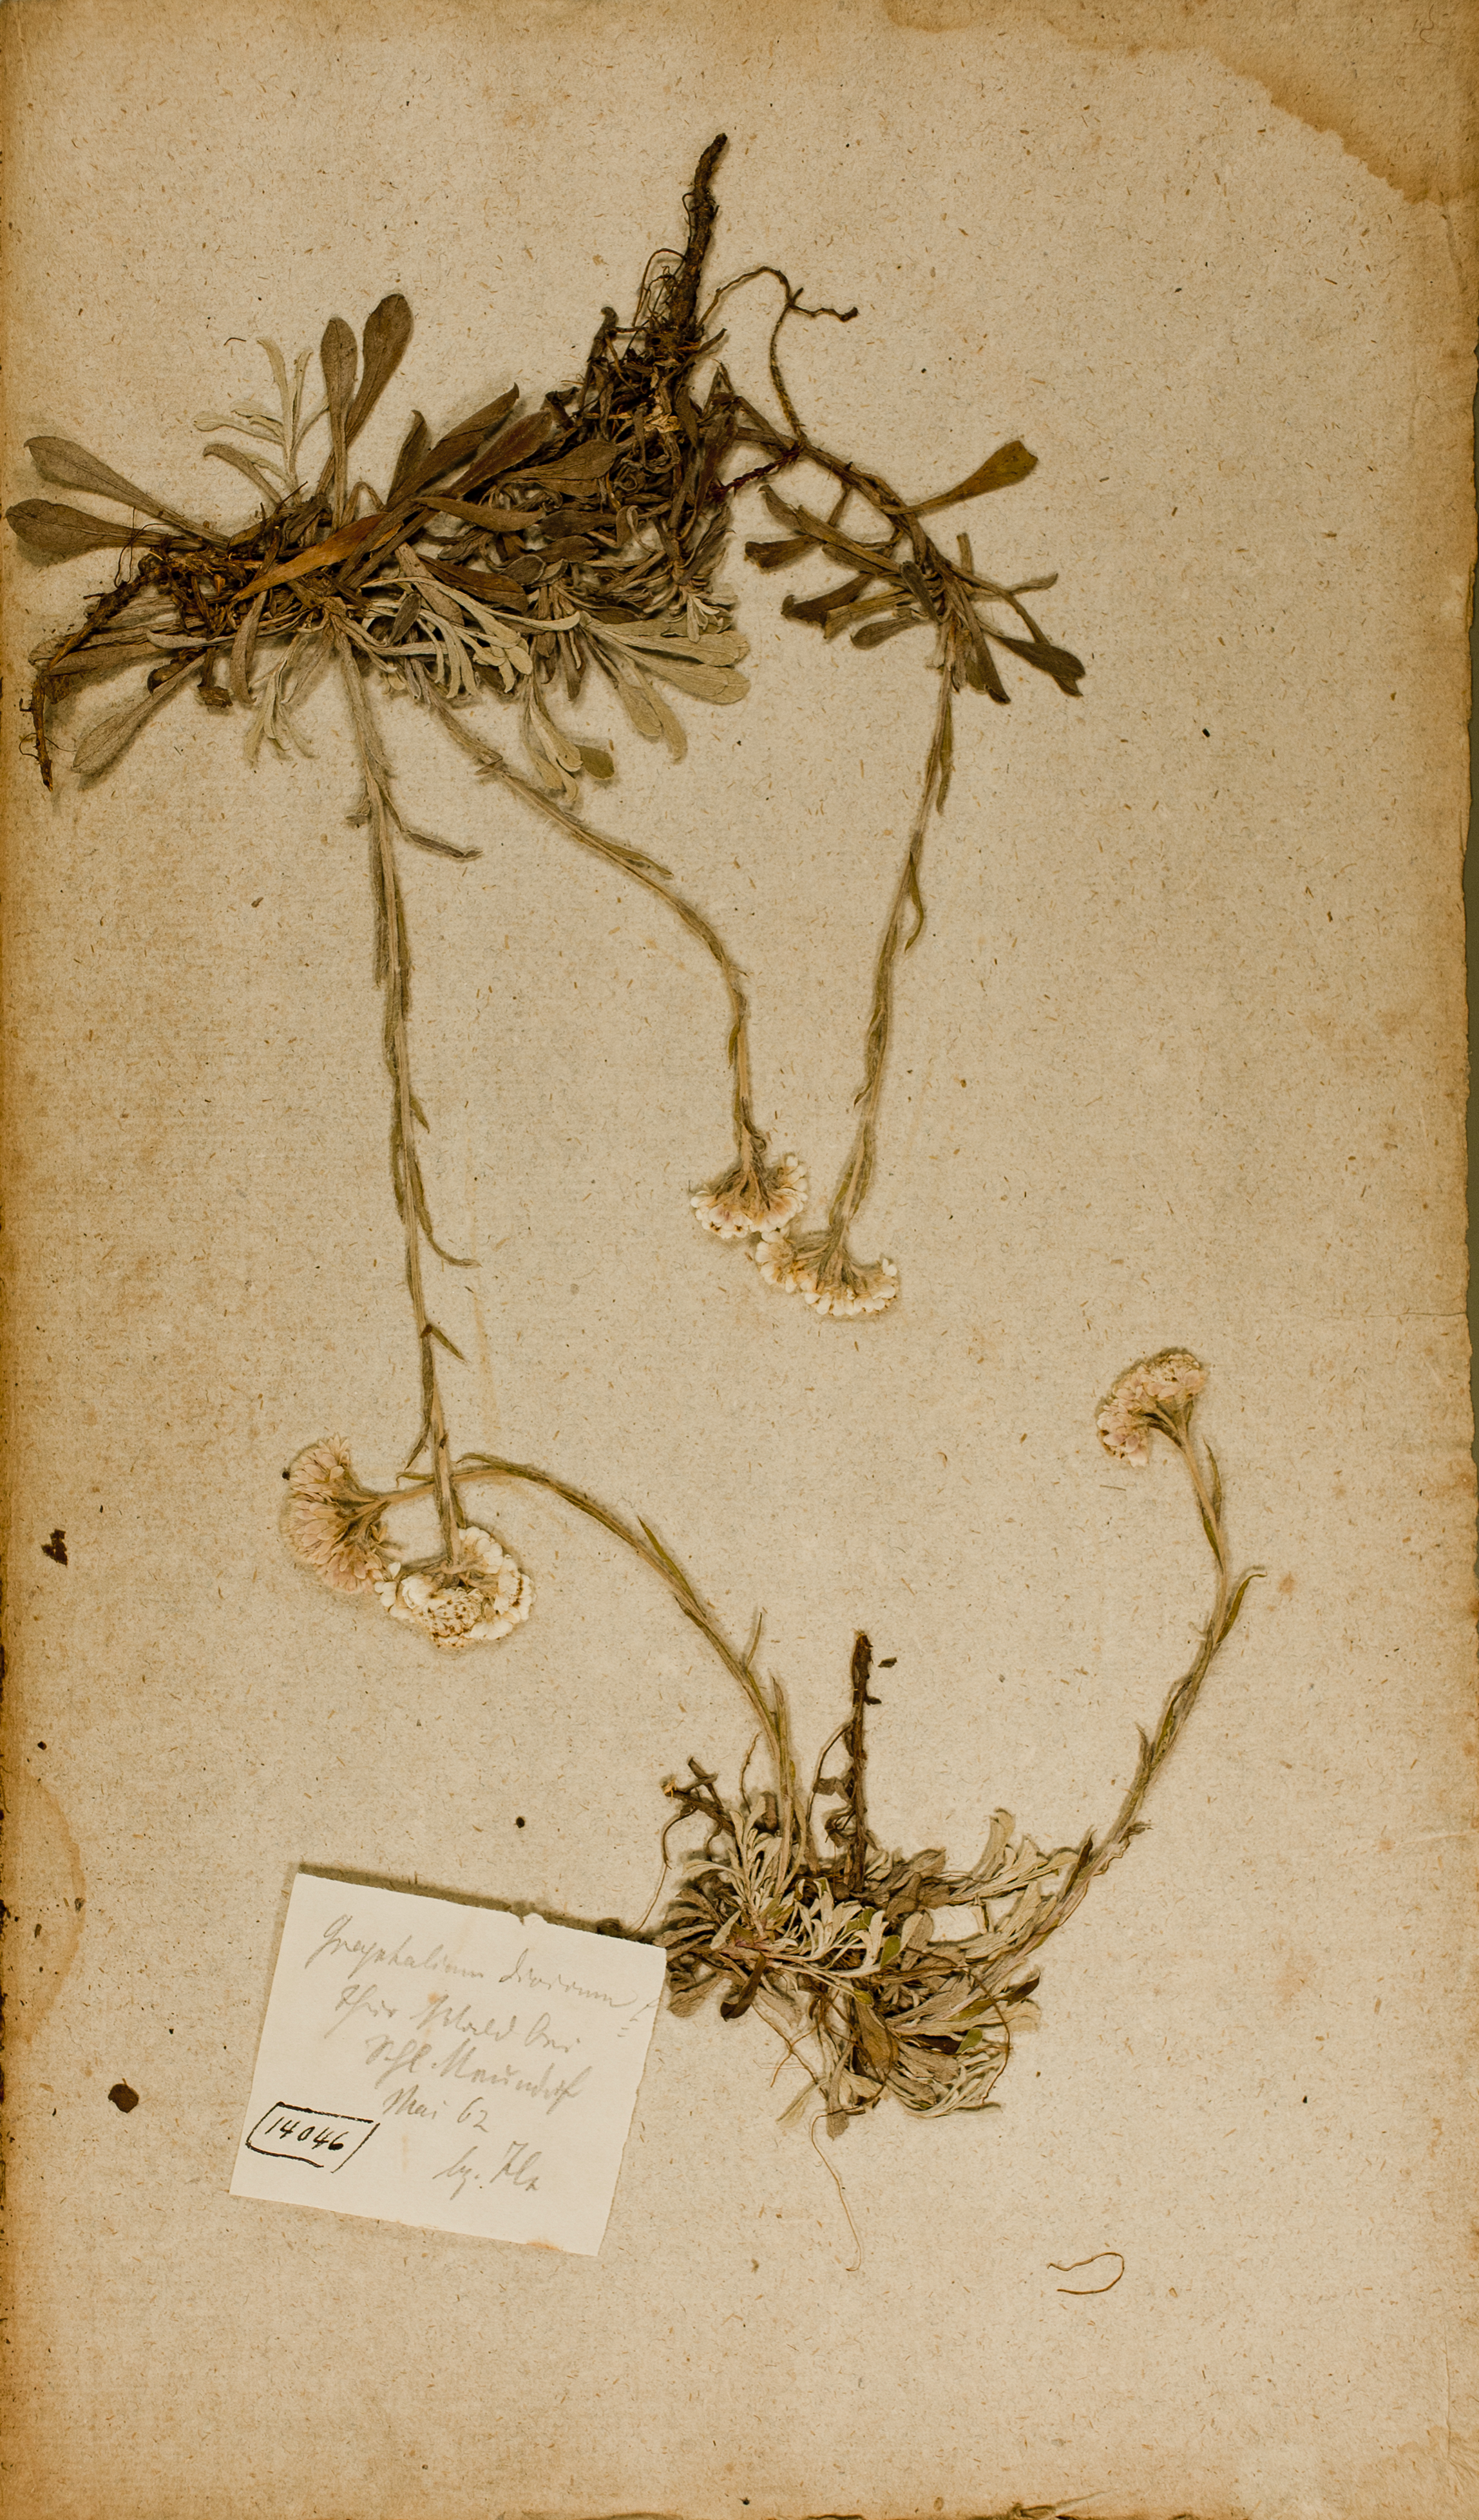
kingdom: Plantae
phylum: Tracheophyta
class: Magnoliopsida
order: Asterales
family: Asteraceae
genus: Antennaria
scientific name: Antennaria dioica
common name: Mountain everlasting
